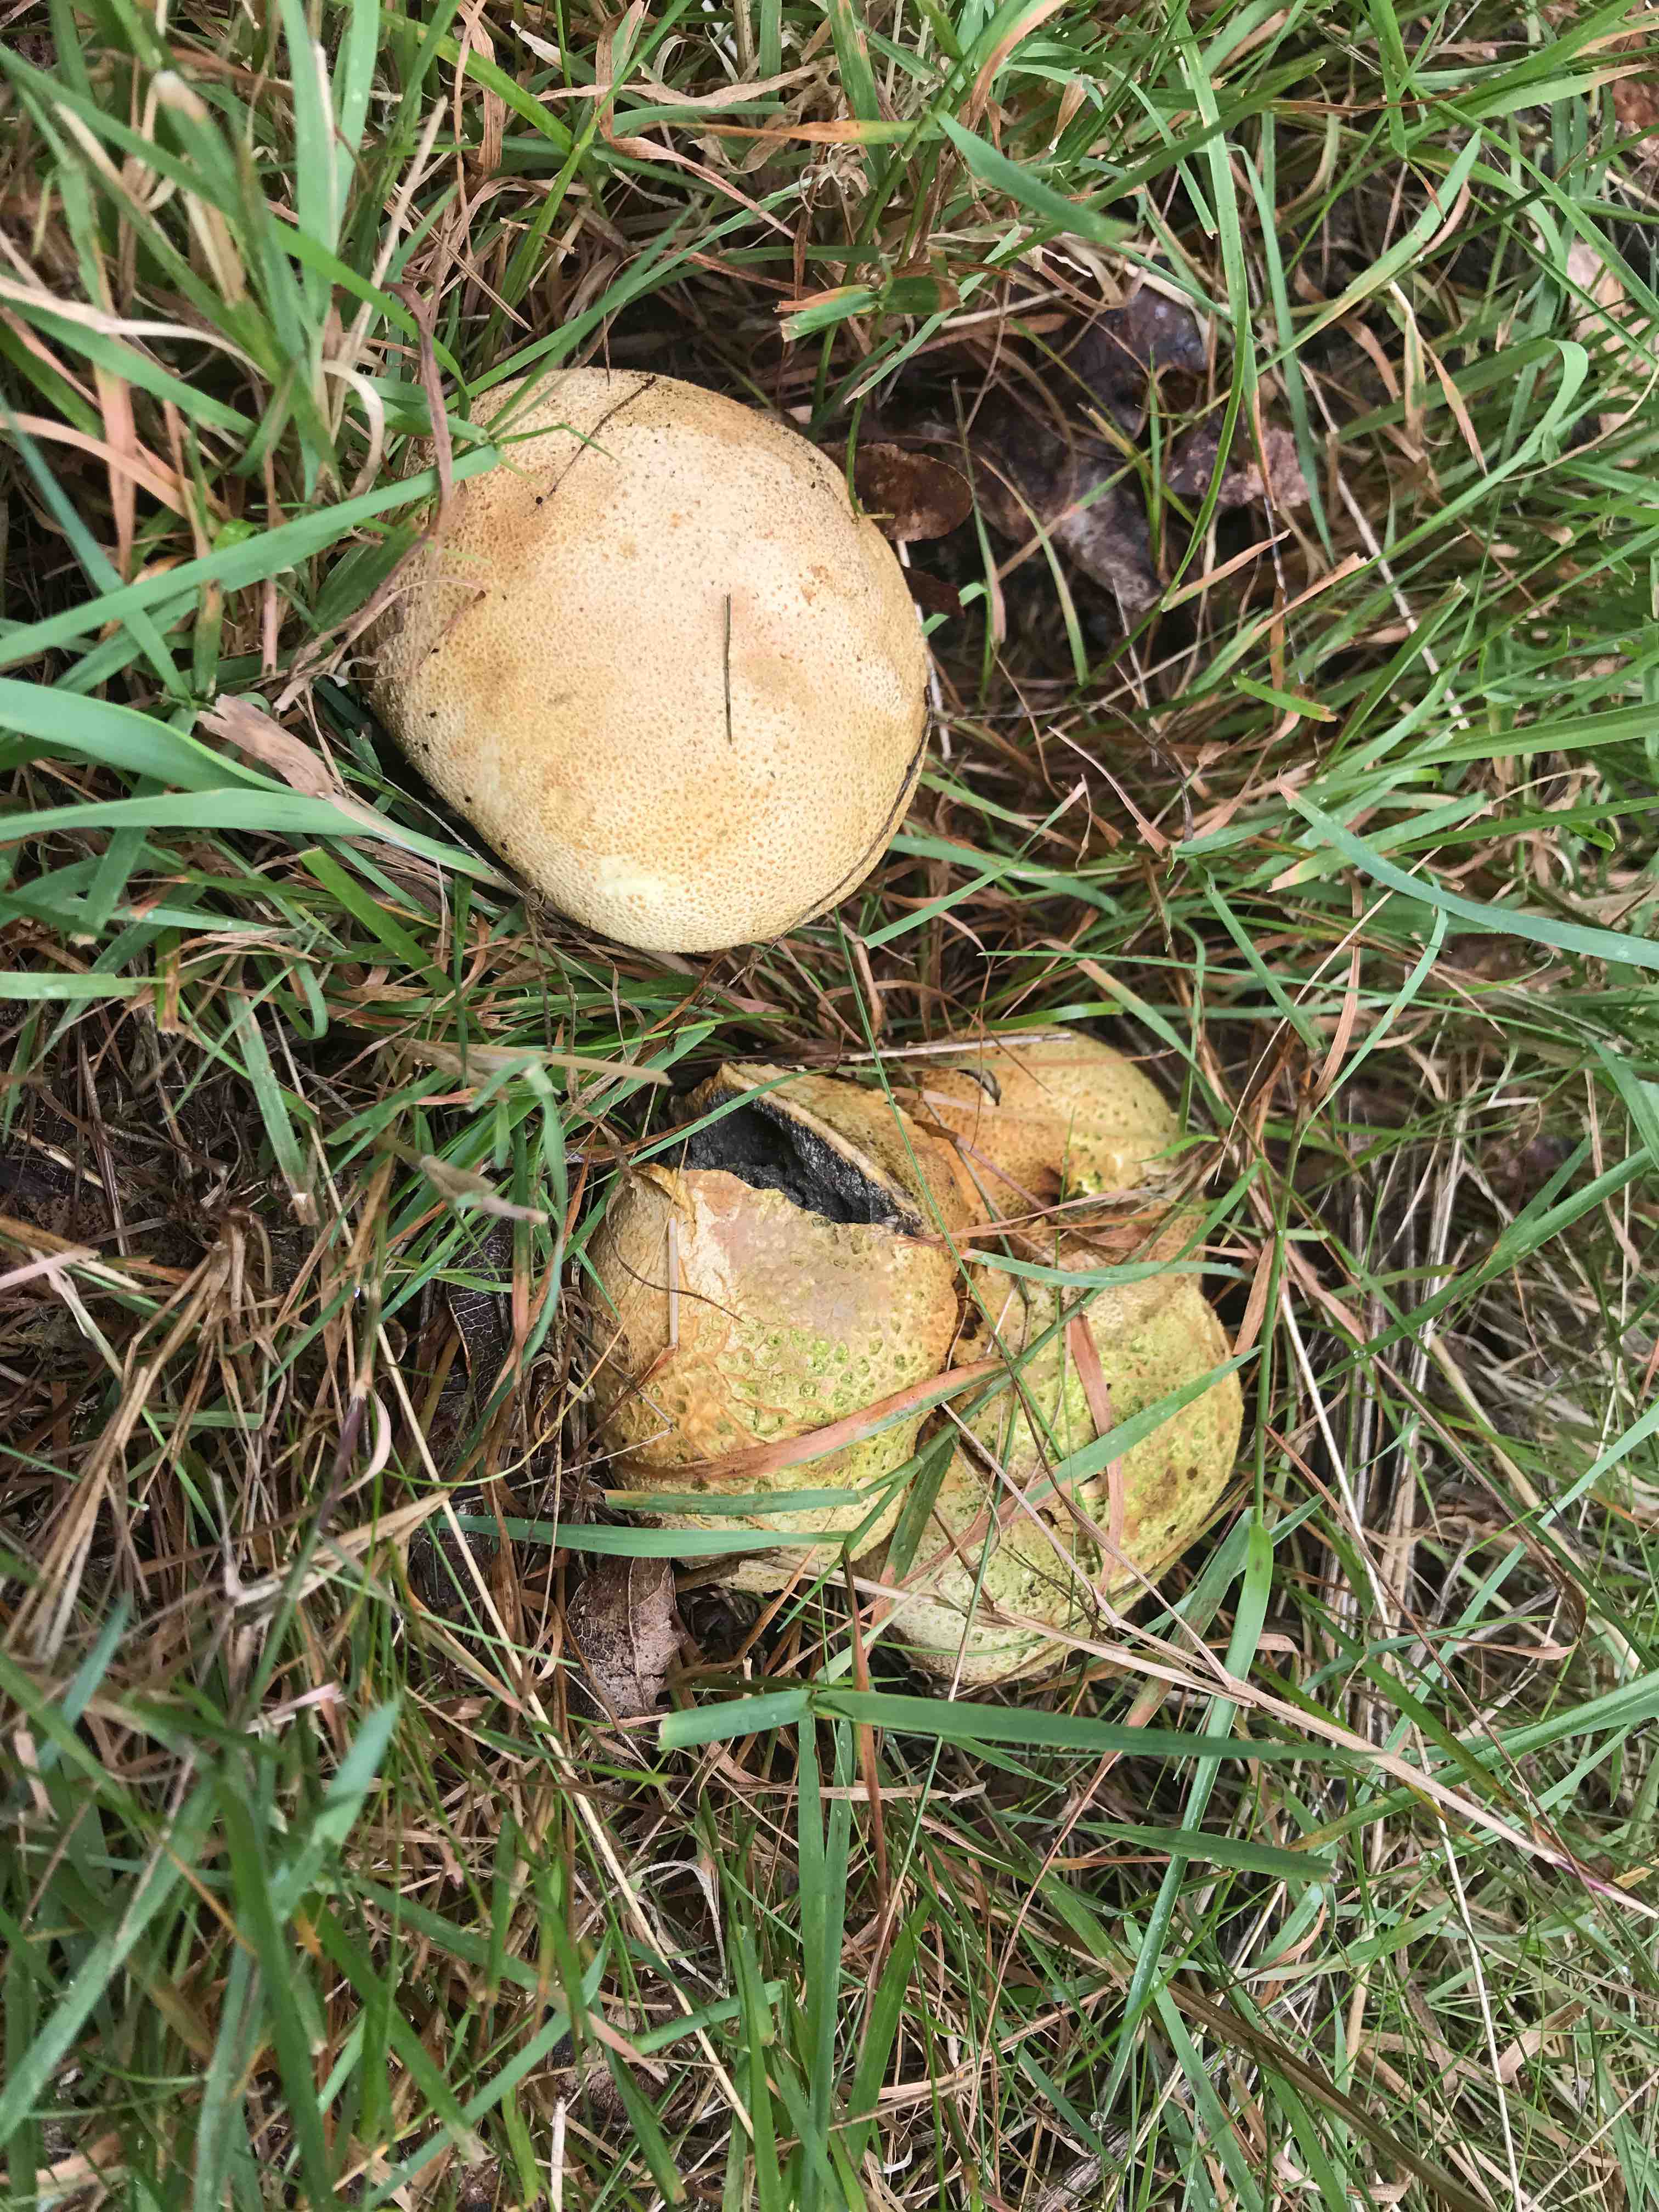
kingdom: Fungi
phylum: Basidiomycota
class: Agaricomycetes
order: Boletales
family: Sclerodermataceae
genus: Scleroderma
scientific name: Scleroderma citrinum
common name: almindelig bruskbold
